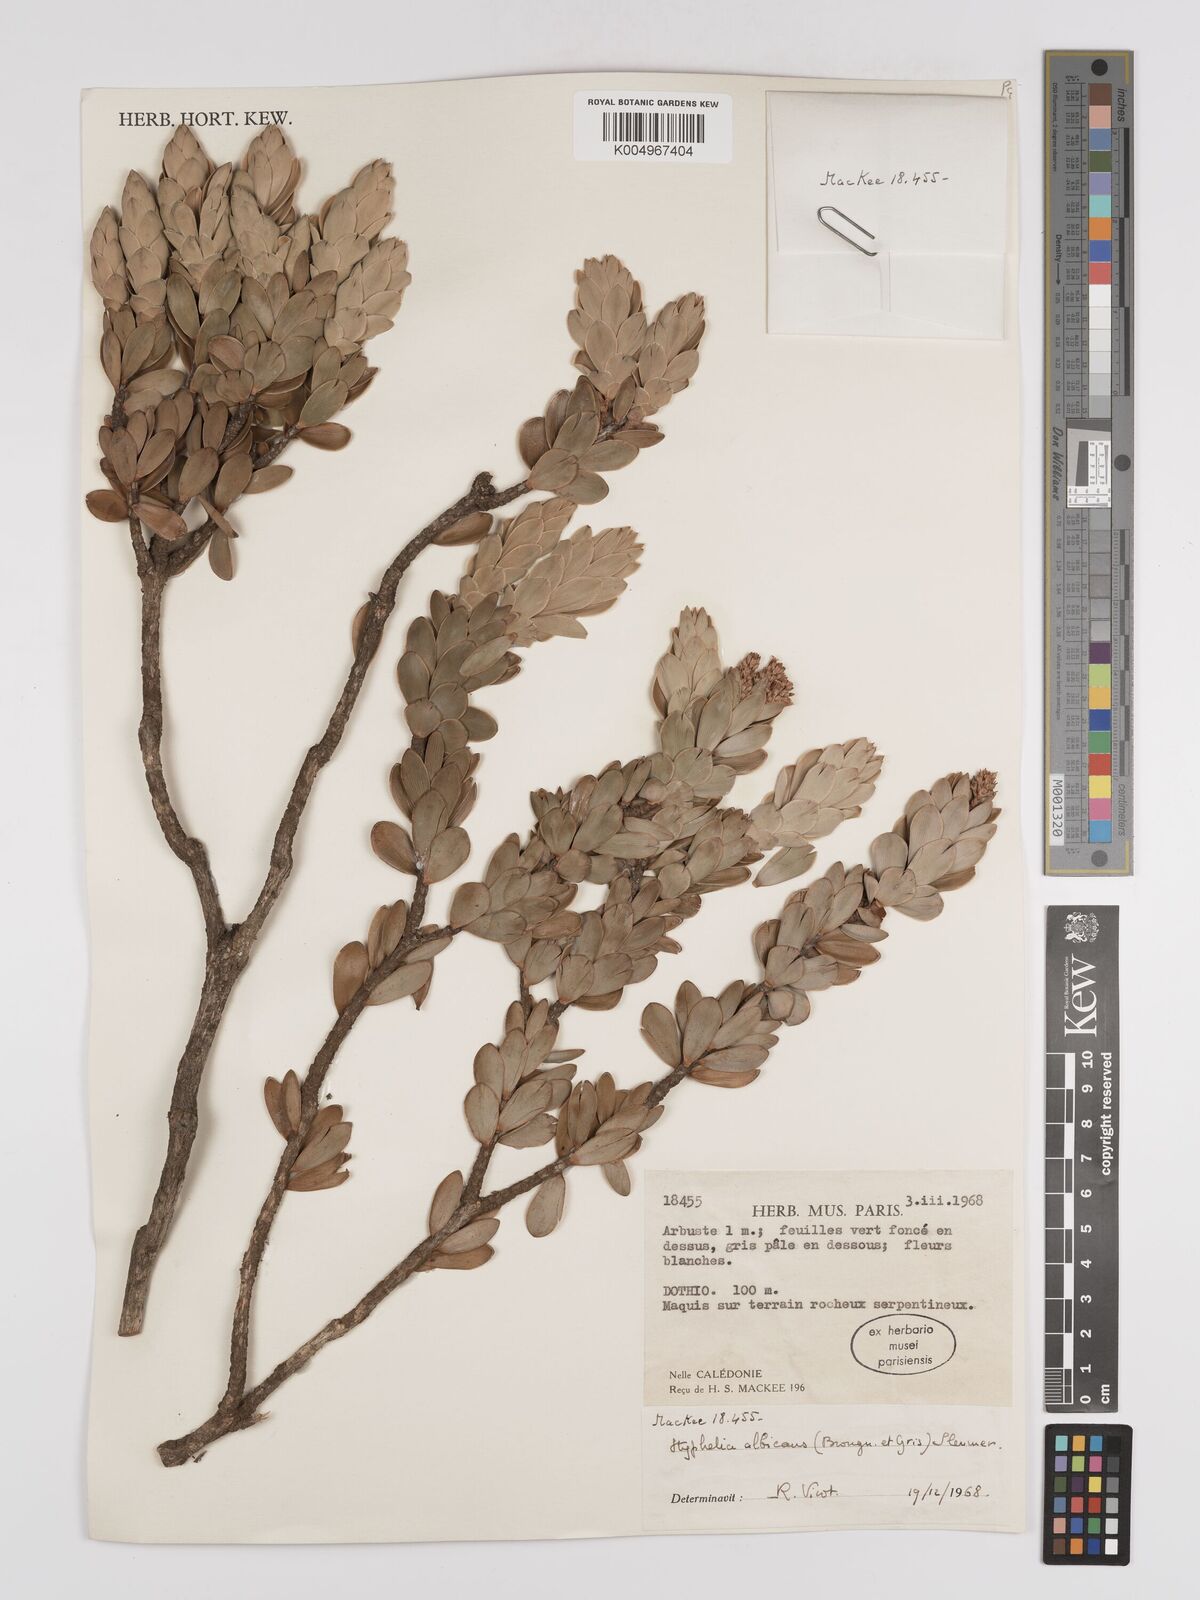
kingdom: Plantae
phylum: Tracheophyta
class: Magnoliopsida
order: Ericales
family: Ericaceae
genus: Cyathopsis
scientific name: Cyathopsis albicans
